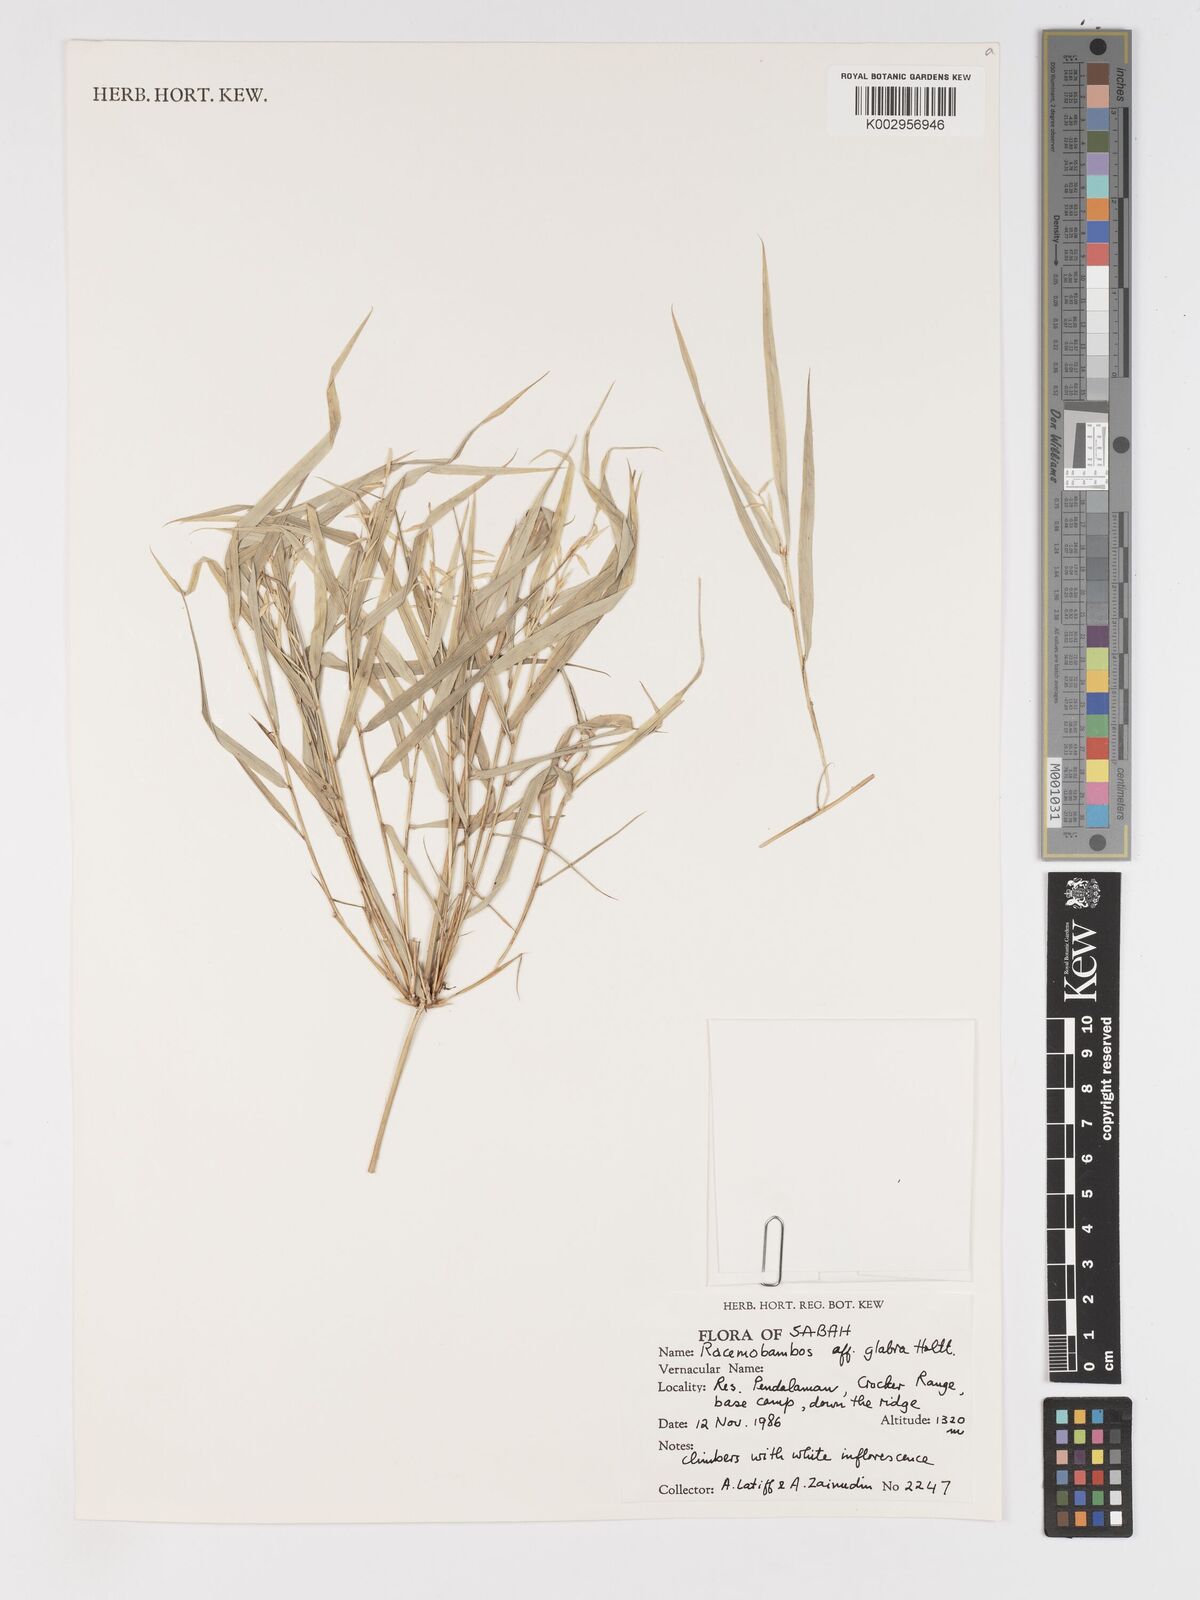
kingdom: Plantae
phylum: Tracheophyta
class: Liliopsida
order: Poales
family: Poaceae
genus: Racemobambos
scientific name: Racemobambos glabra
